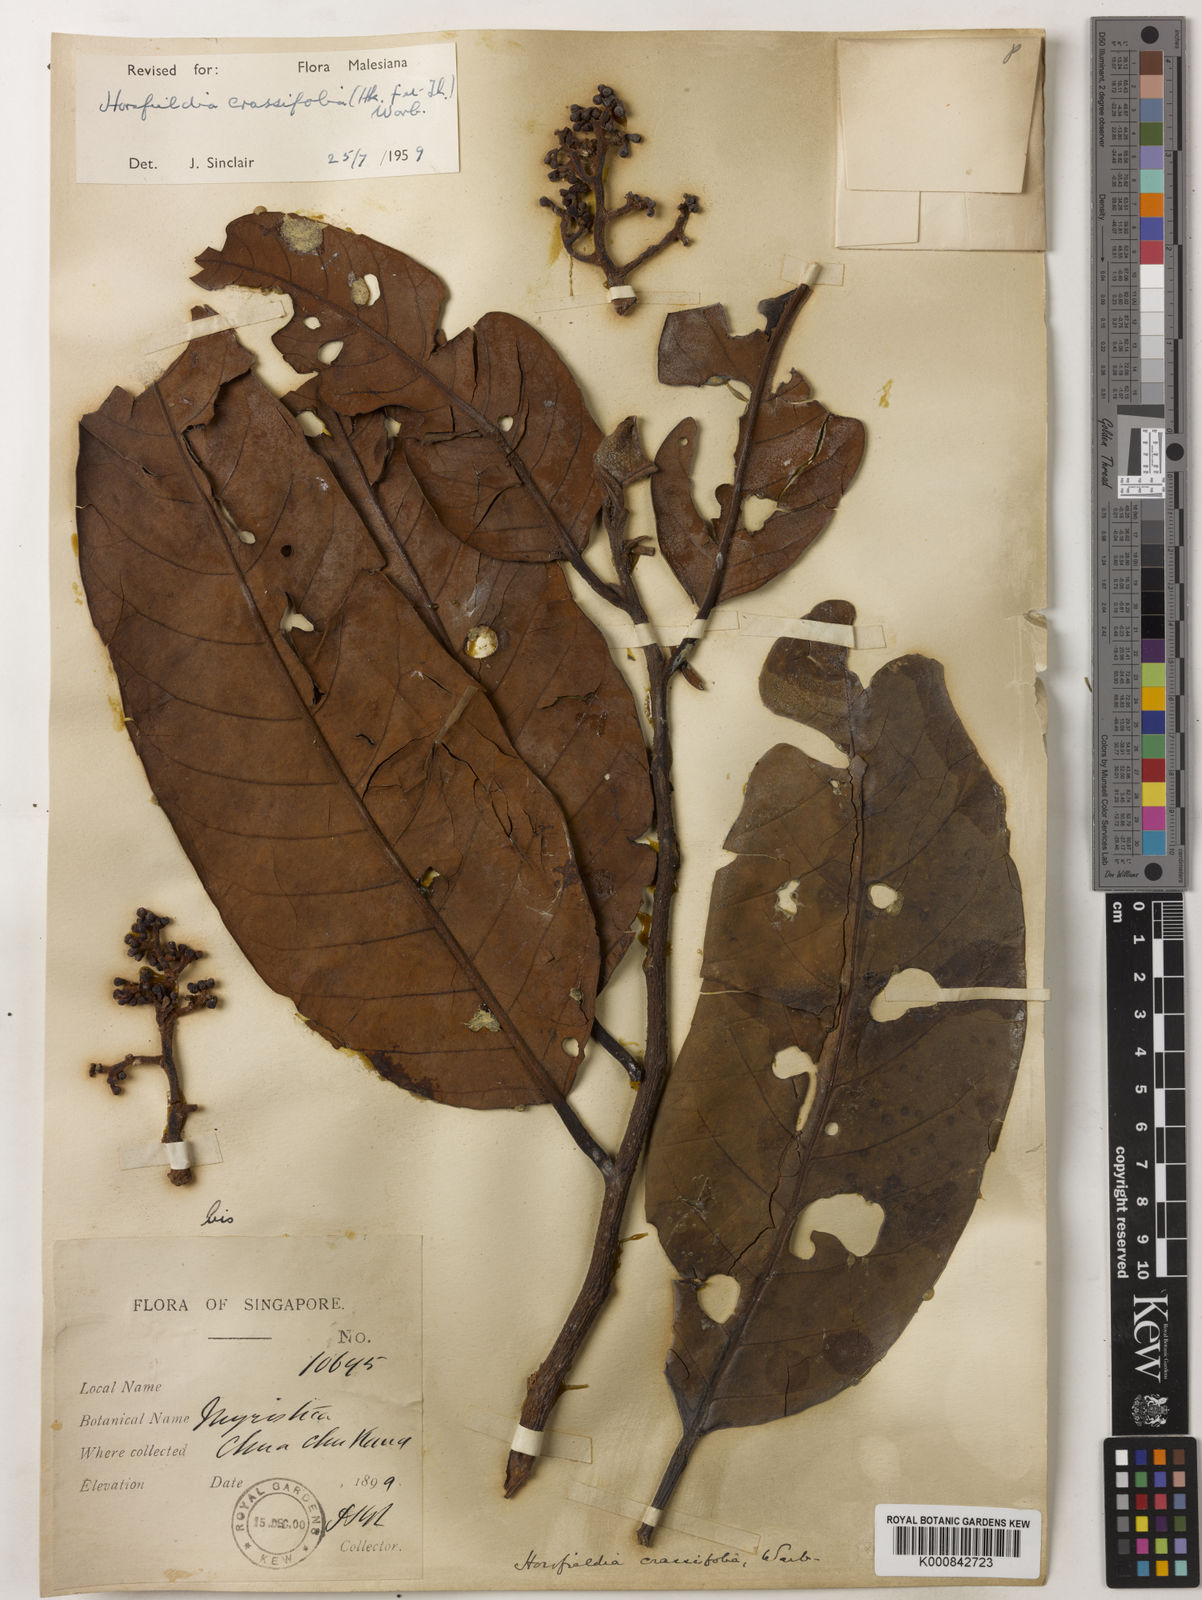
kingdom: Plantae
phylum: Tracheophyta
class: Magnoliopsida
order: Magnoliales
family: Myristicaceae
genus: Horsfieldia
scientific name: Horsfieldia crassifolia
